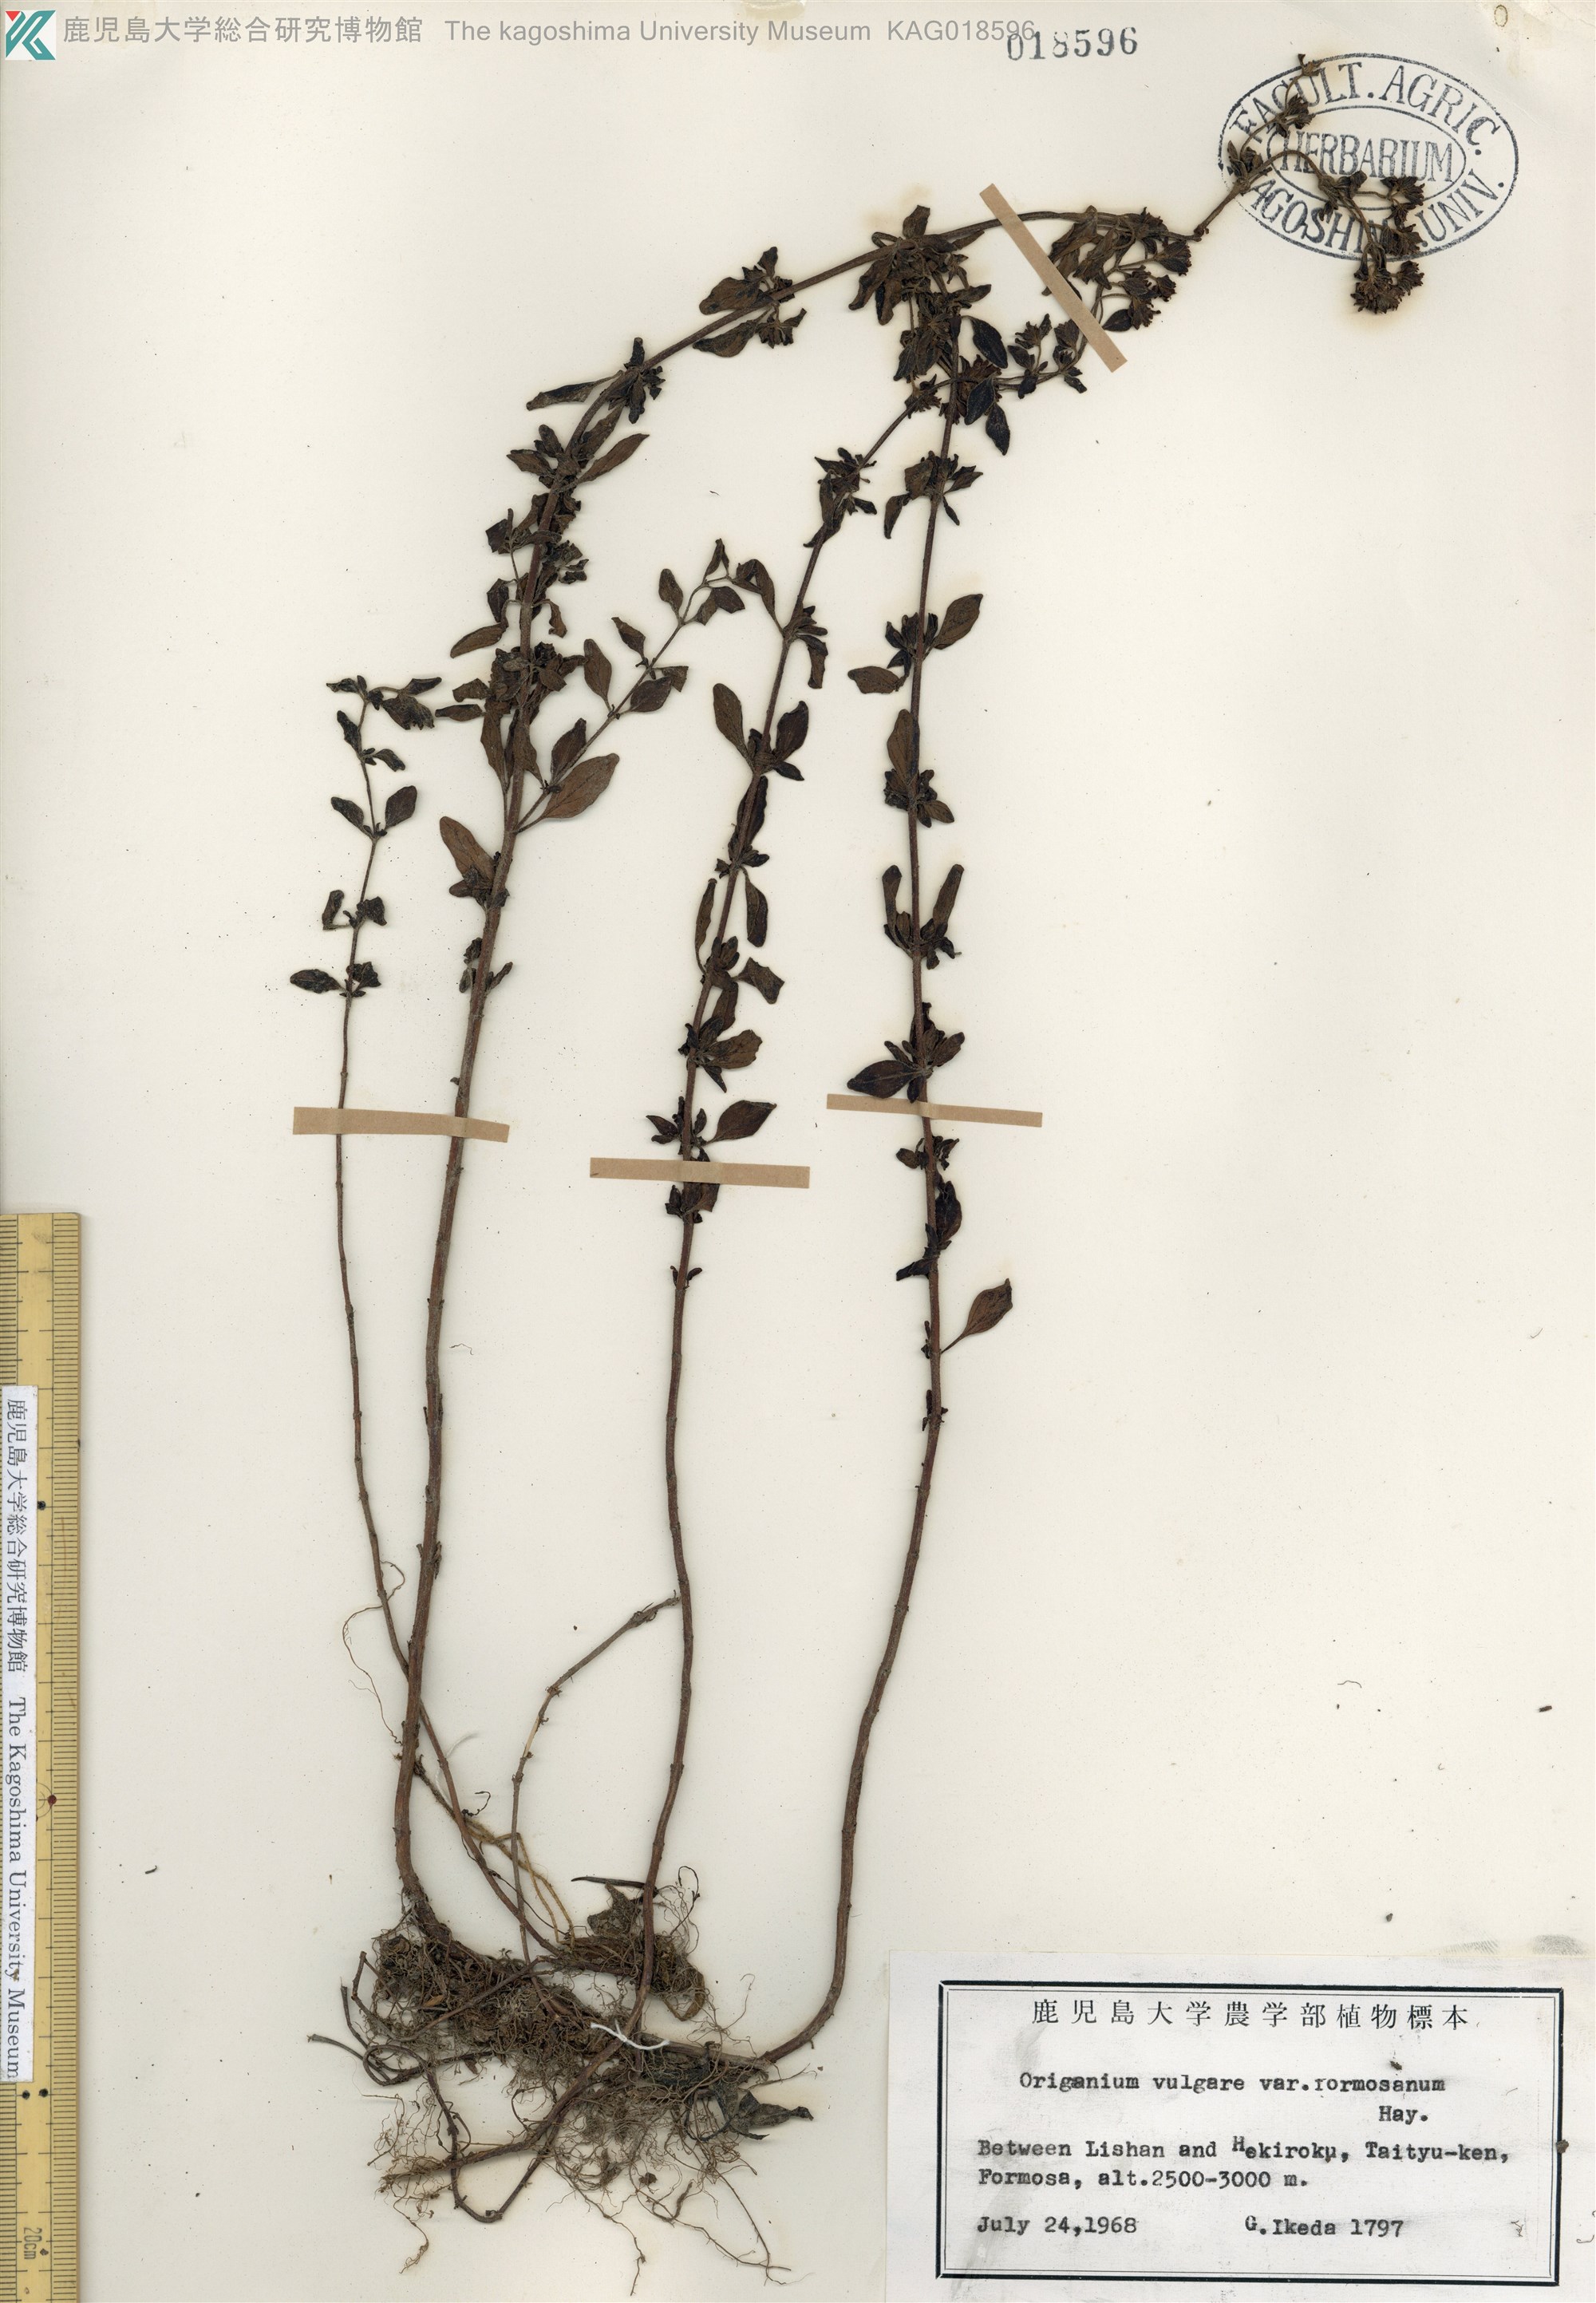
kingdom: Plantae
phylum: Tracheophyta
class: Magnoliopsida
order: Lamiales
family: Lamiaceae
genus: Origanum
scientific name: Origanum vulgare
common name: Wild marjoram
